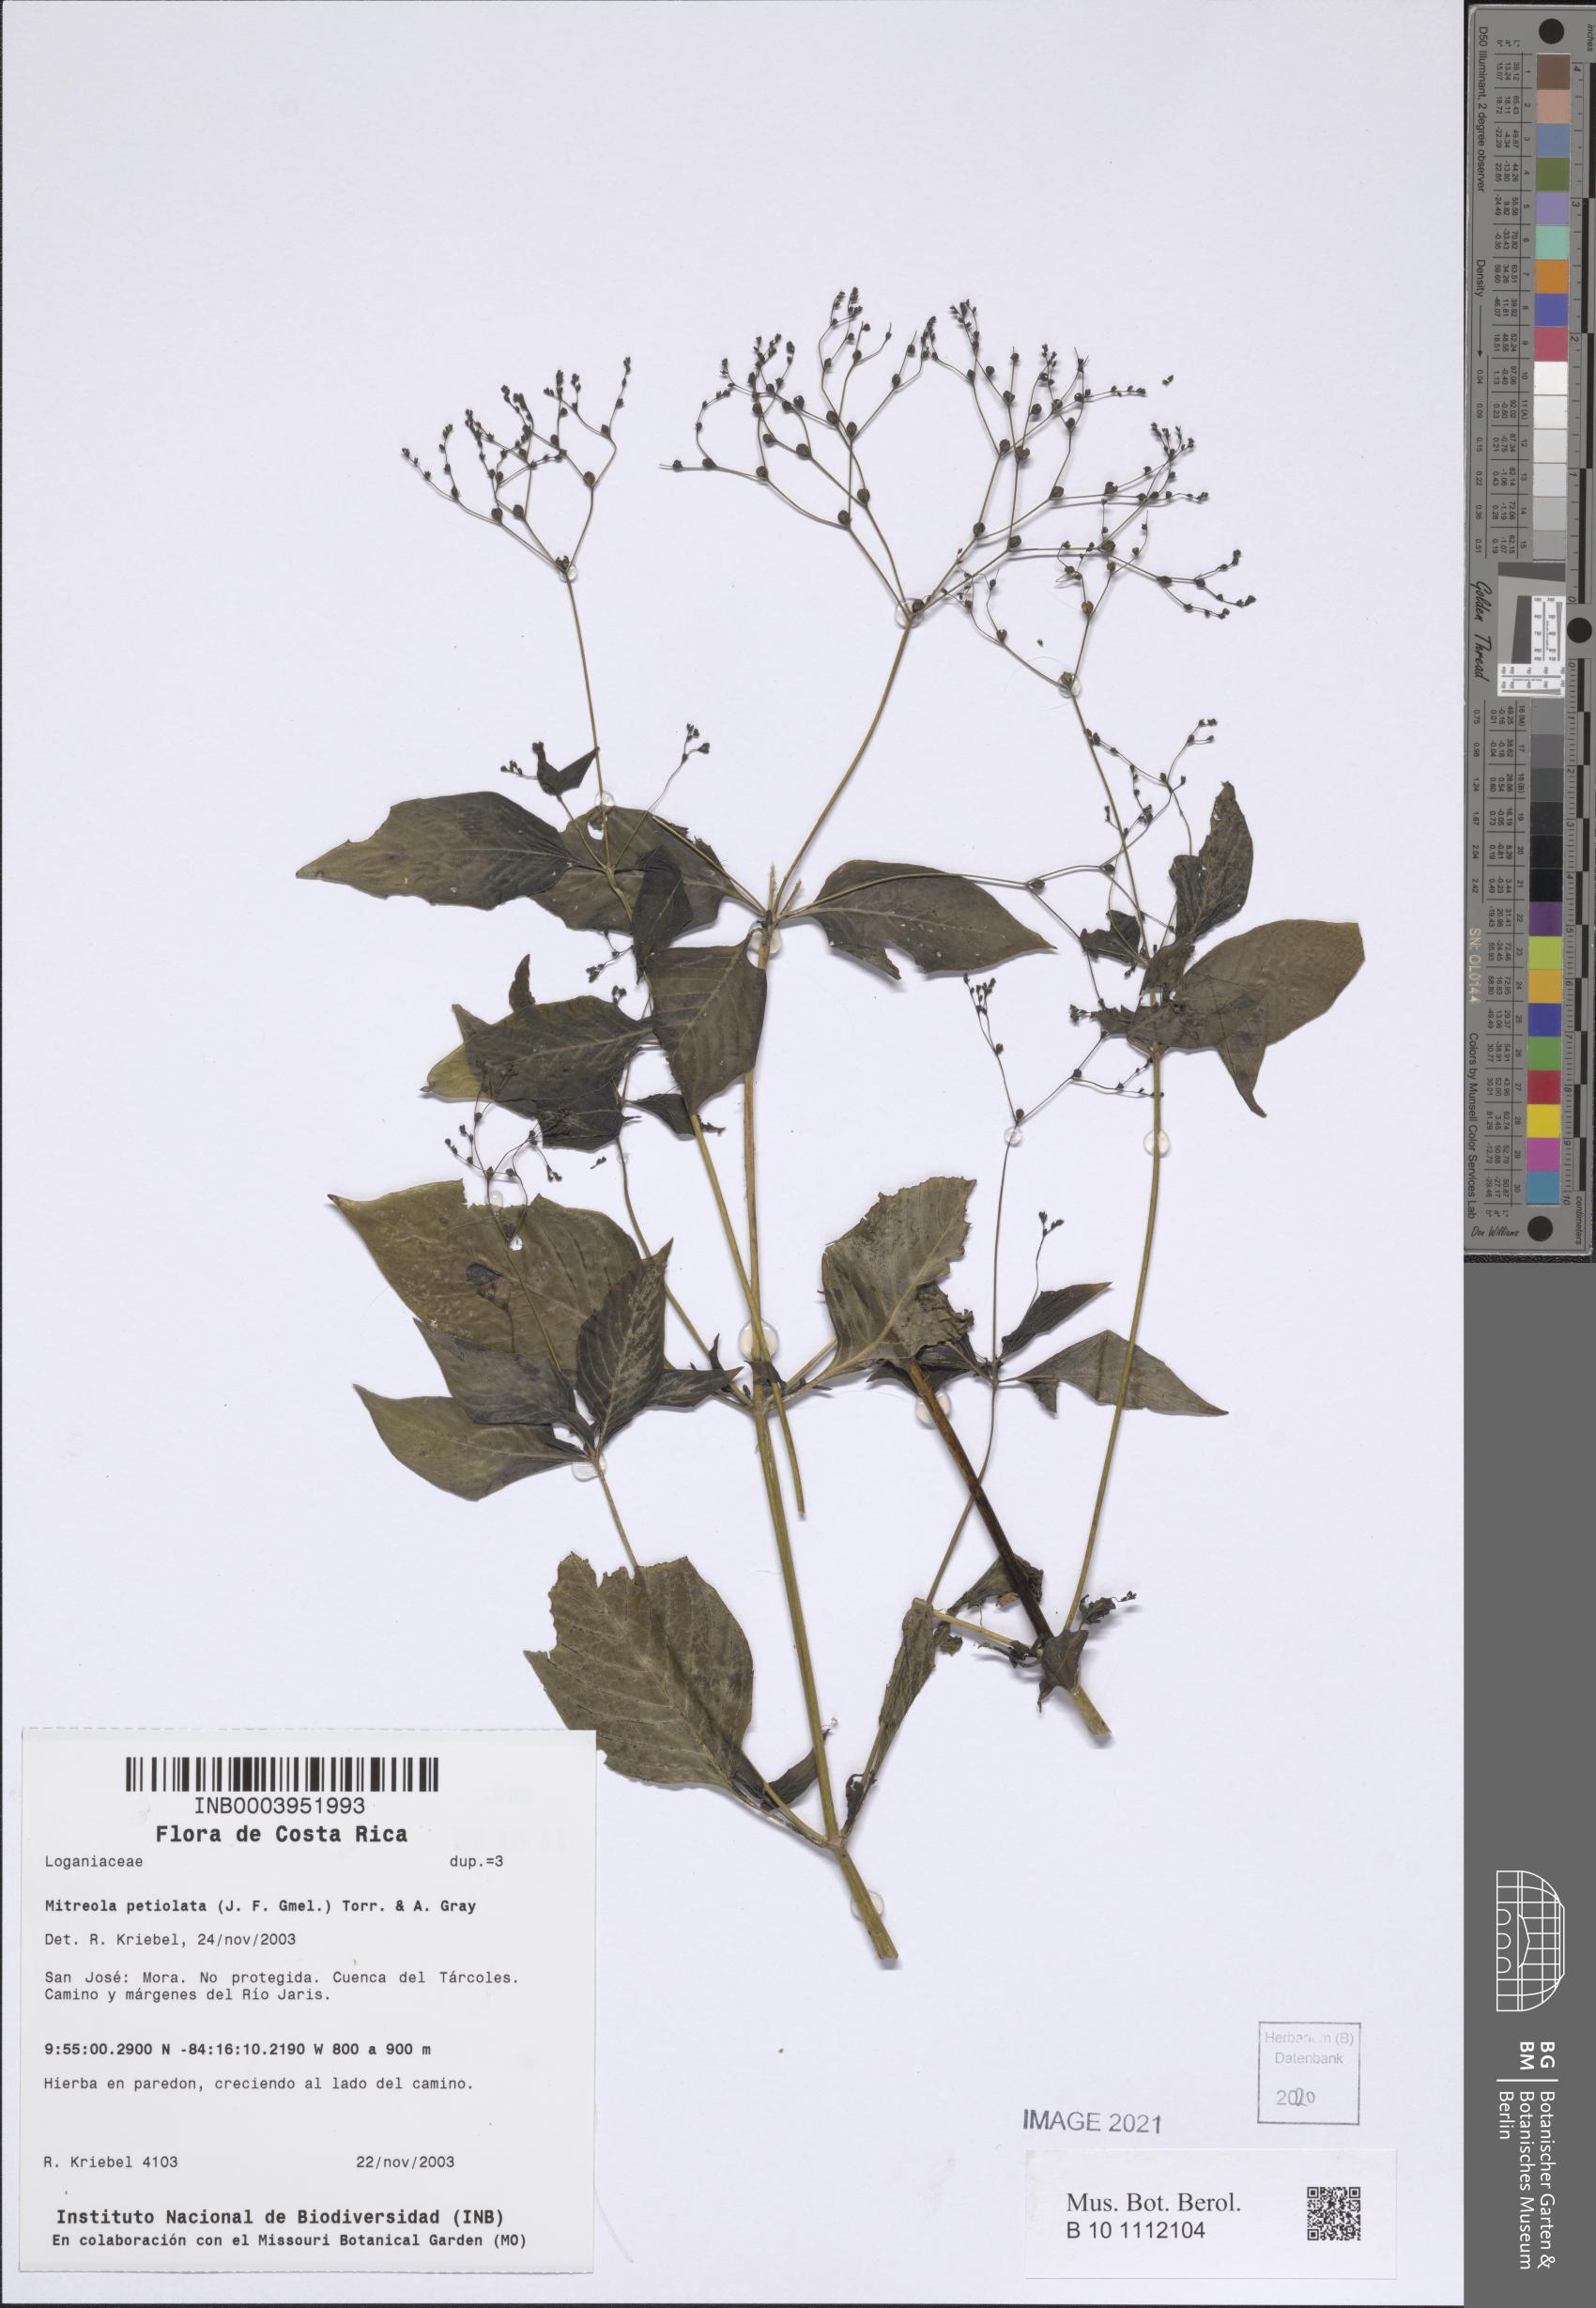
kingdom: Plantae
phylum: Tracheophyta
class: Magnoliopsida
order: Gentianales
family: Loganiaceae
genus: Mitreola
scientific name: Mitreola petiolata
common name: Lax hornpod
